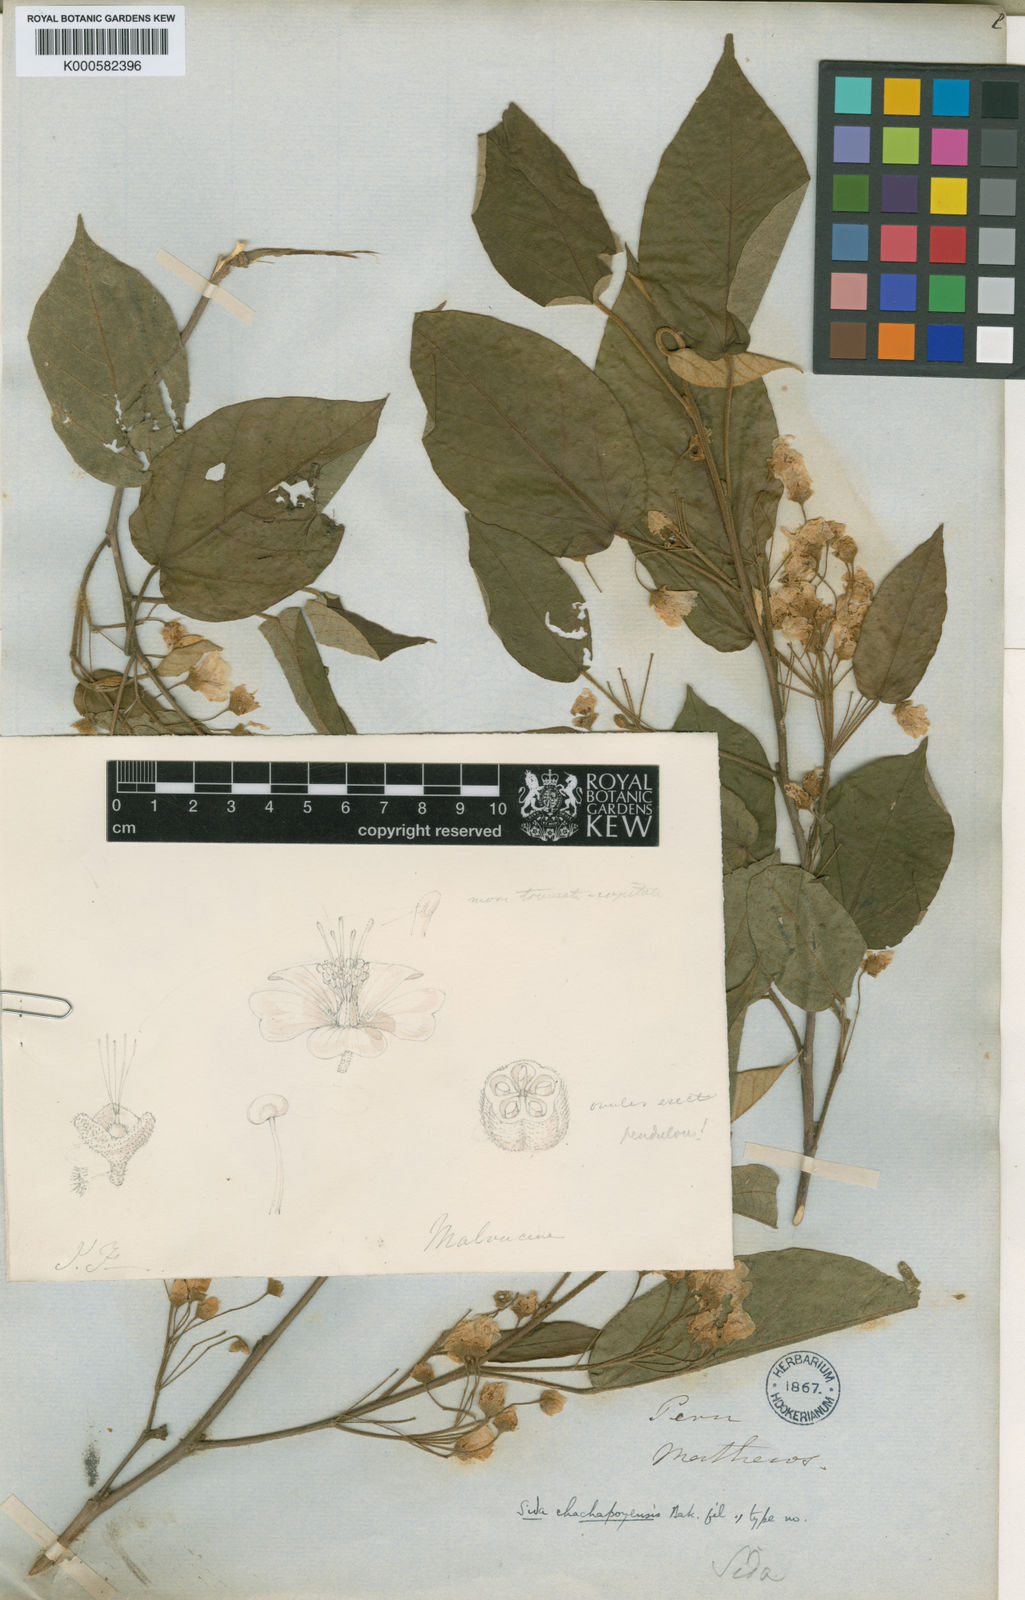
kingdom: Plantae
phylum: Tracheophyta
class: Magnoliopsida
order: Malvales
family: Malvaceae
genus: Tetrasida
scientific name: Tetrasida chachapoyensis
